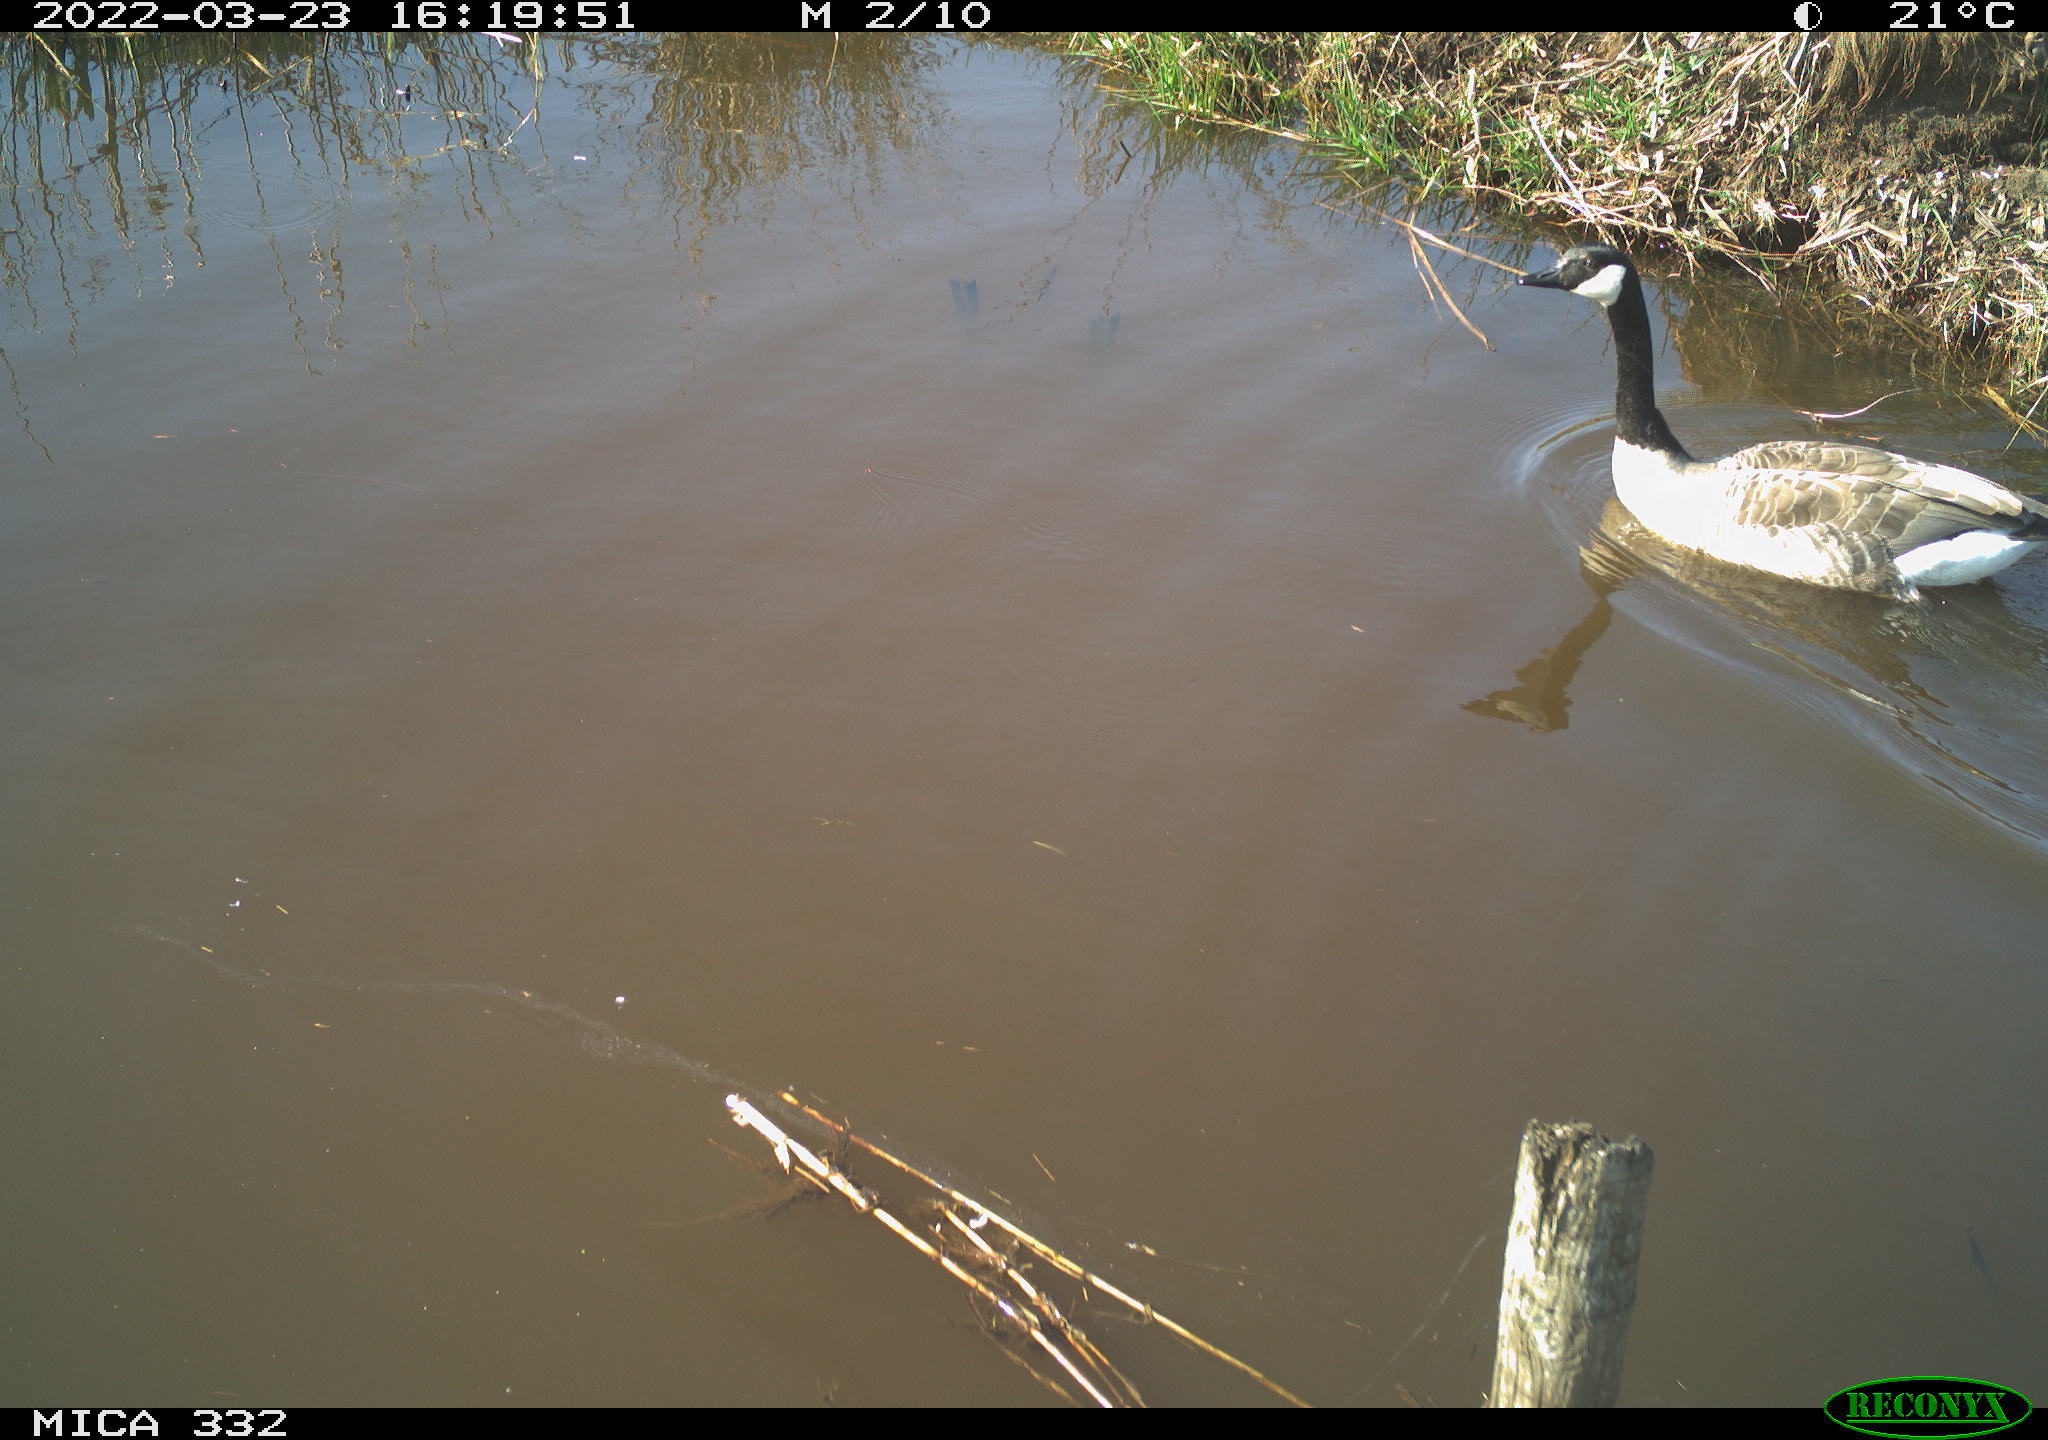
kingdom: Animalia
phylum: Chordata
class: Aves
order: Anseriformes
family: Anatidae
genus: Branta
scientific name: Branta canadensis
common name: Canada goose
